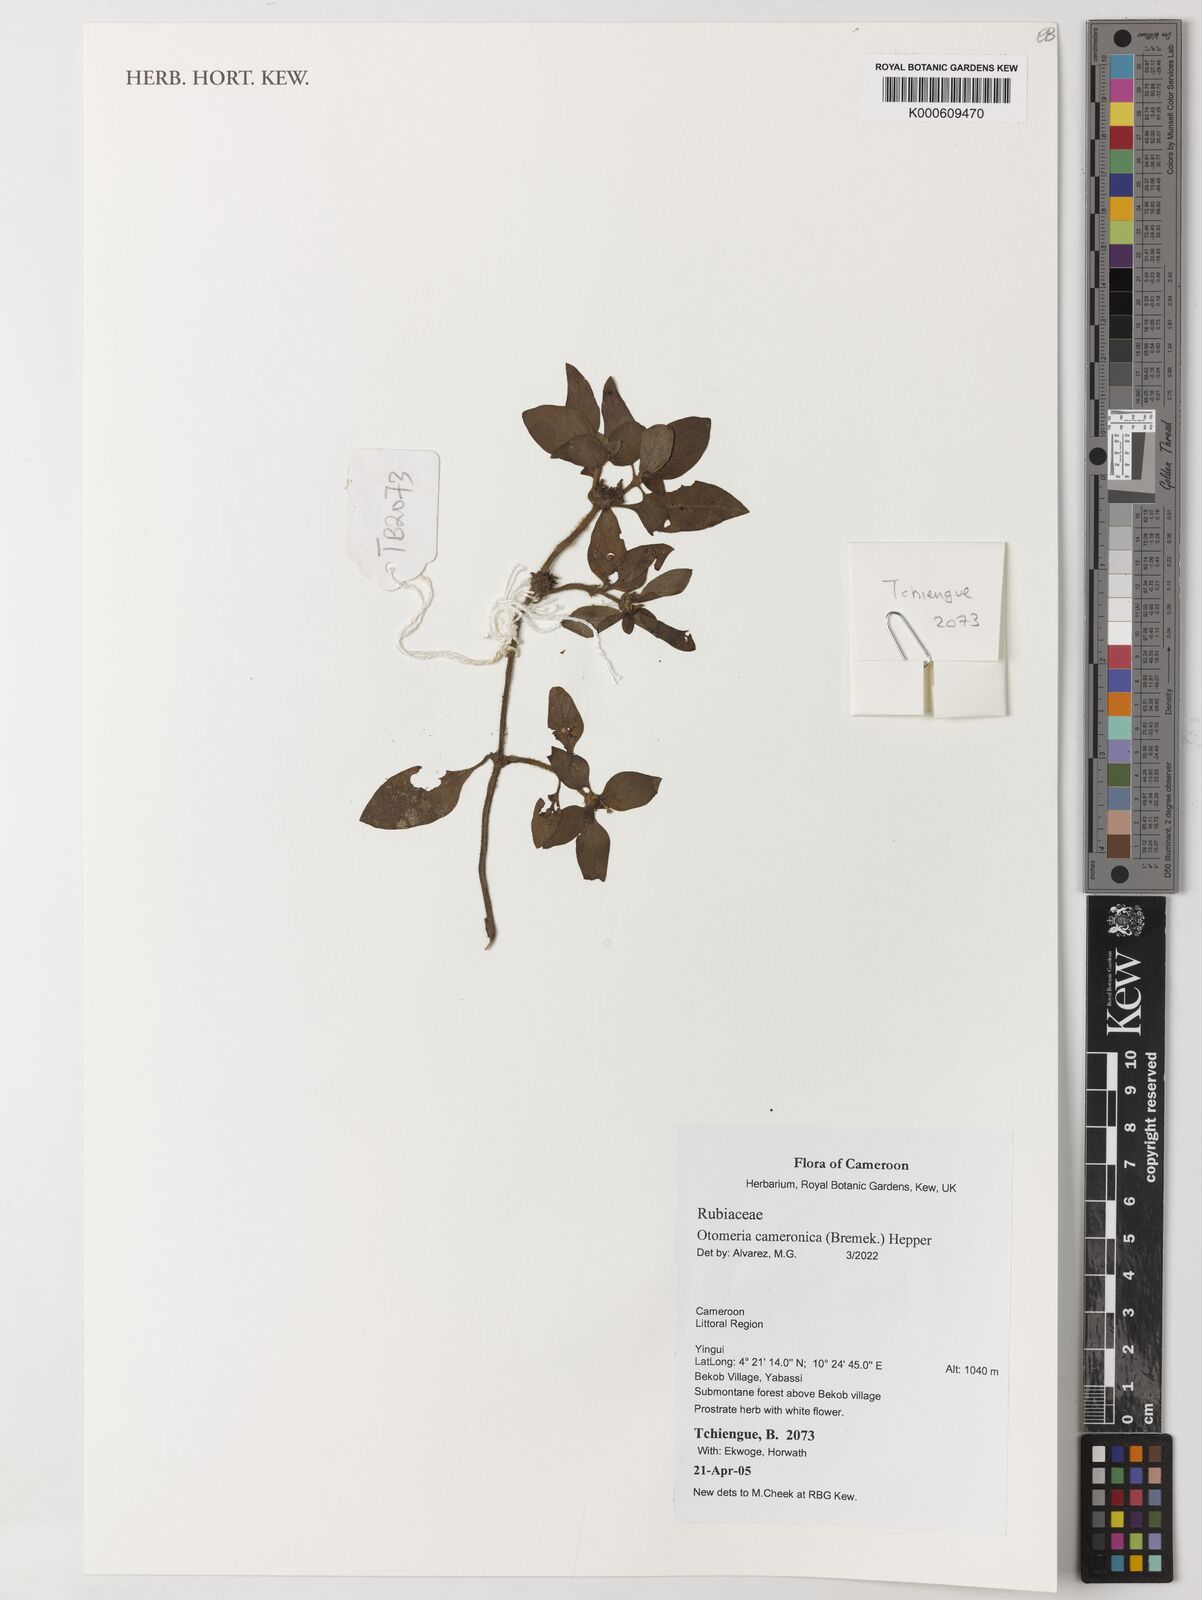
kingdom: Plantae
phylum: Tracheophyta
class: Magnoliopsida
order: Gentianales
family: Rubiaceae
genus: Otomeria
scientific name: Otomeria cameronica
